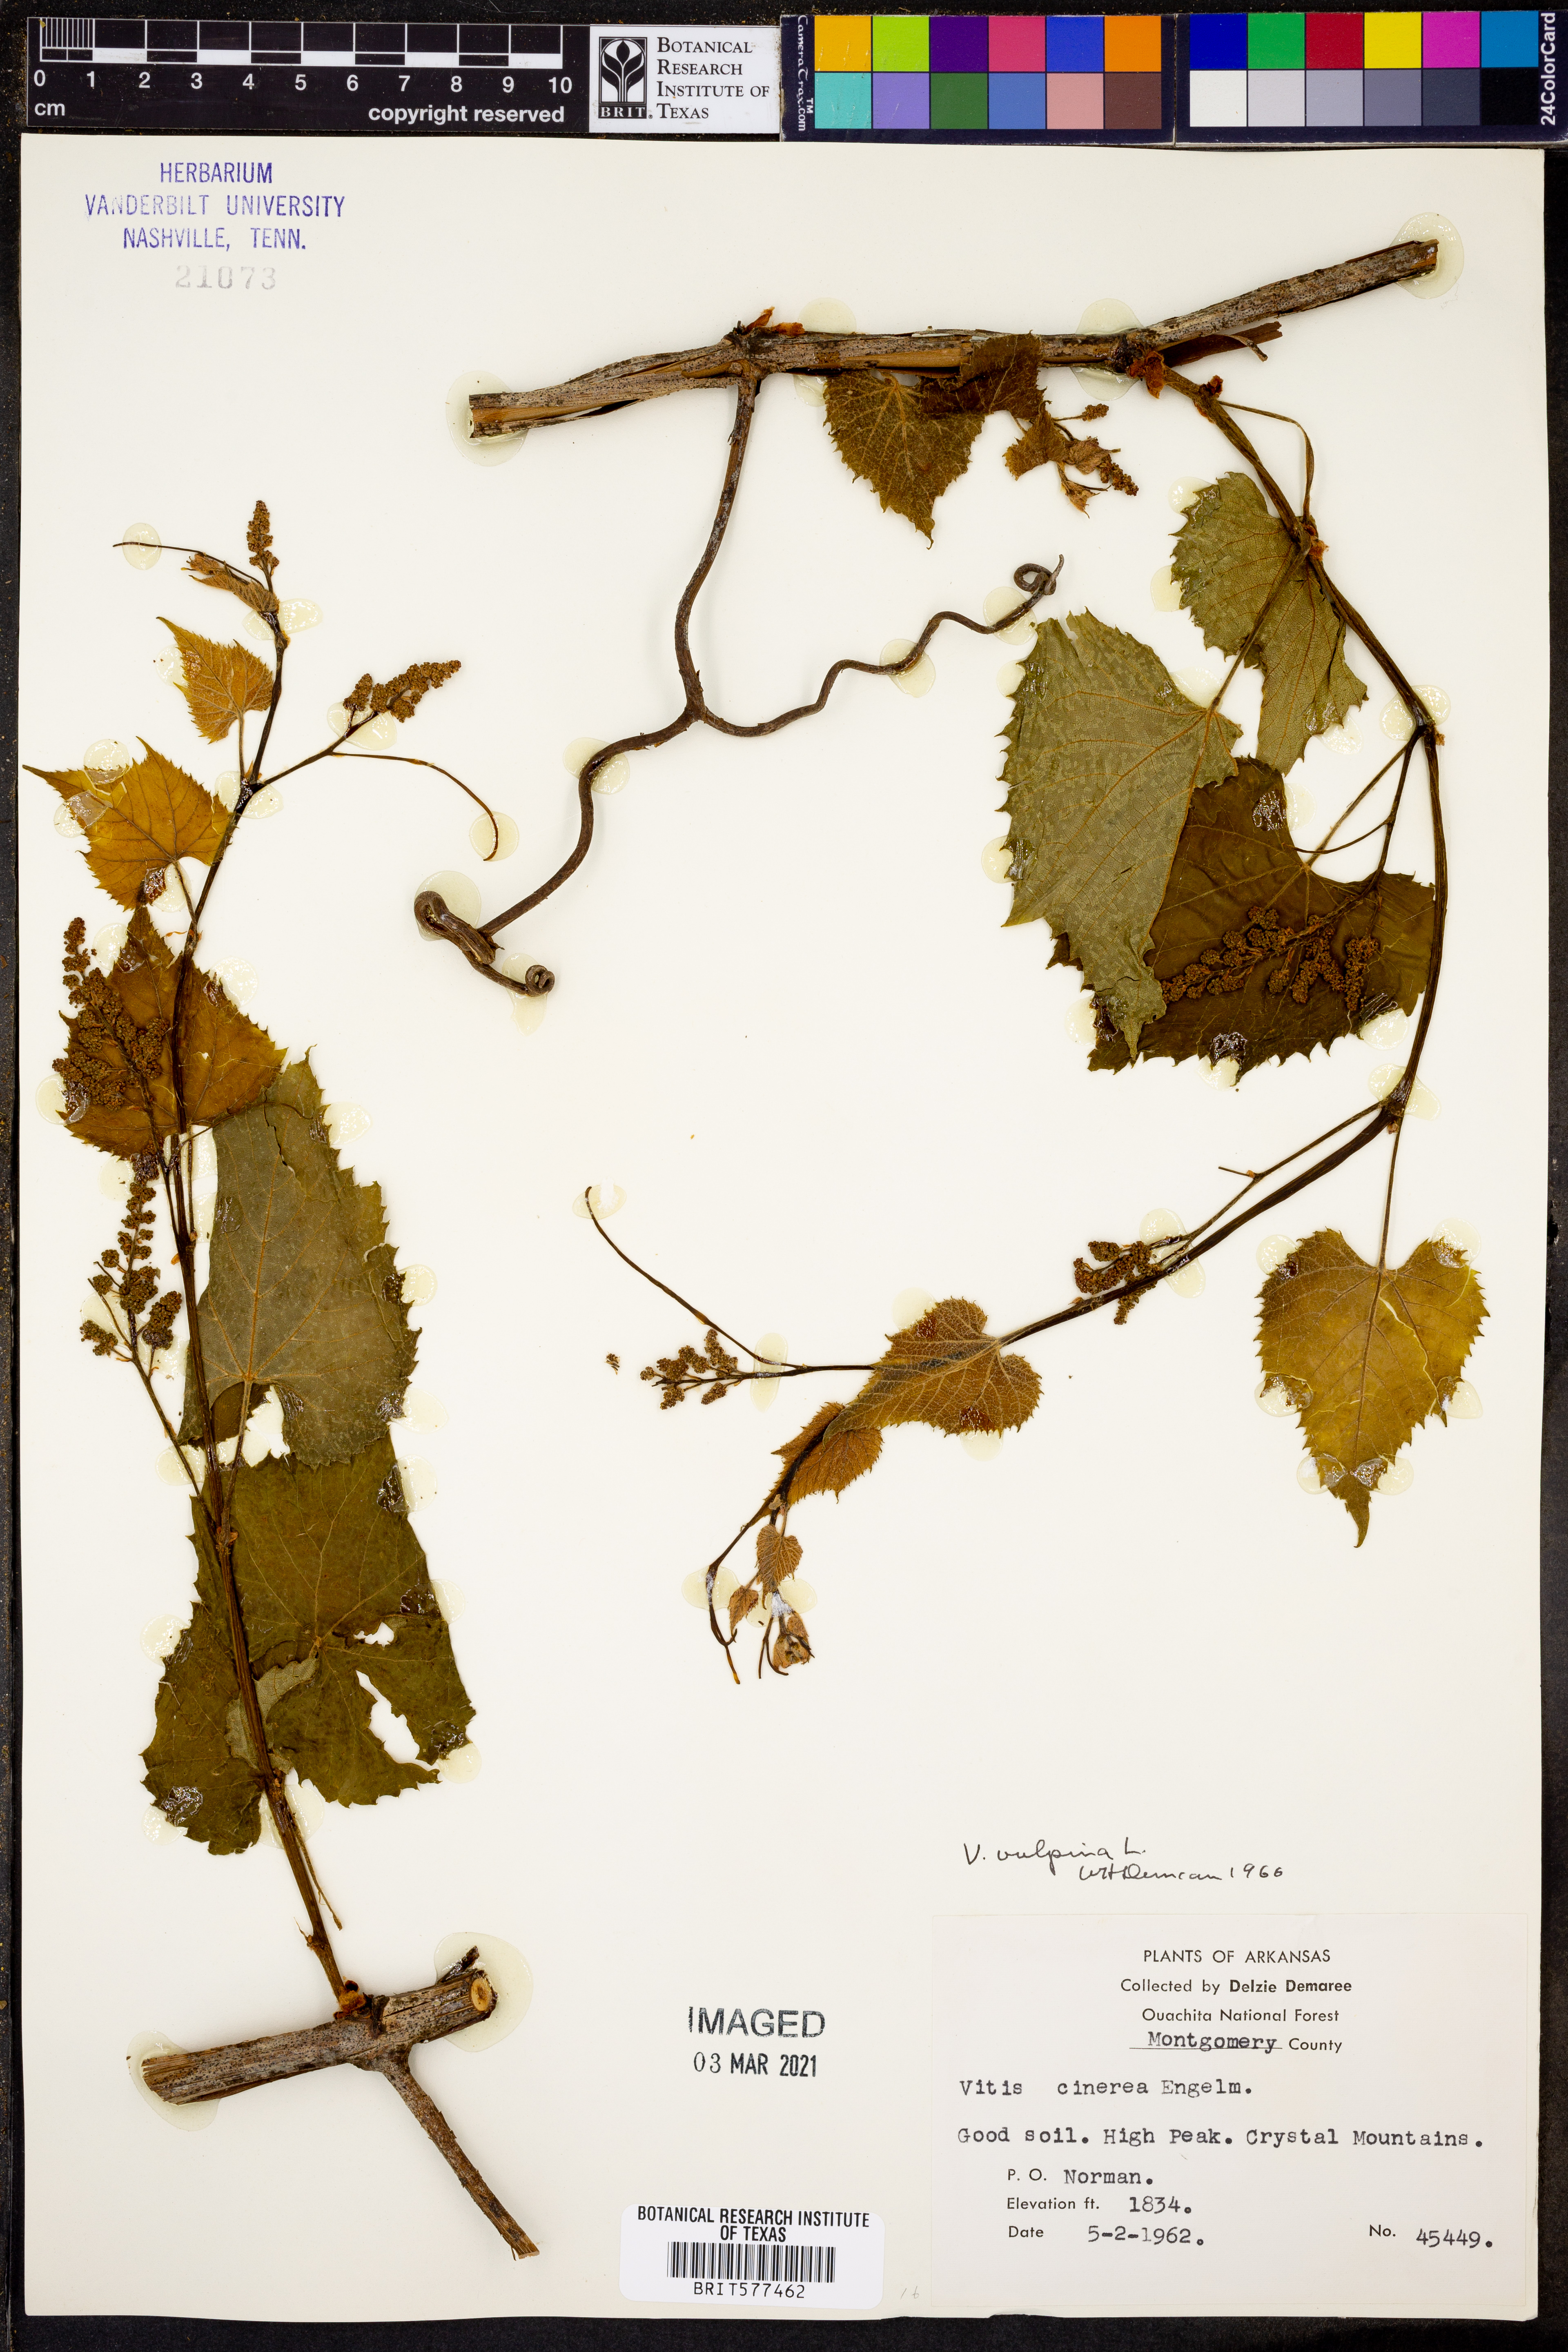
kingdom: Plantae
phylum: Tracheophyta
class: Magnoliopsida
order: Vitales
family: Vitaceae
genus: Vitis
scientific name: Vitis vulpina
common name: Frost grape
